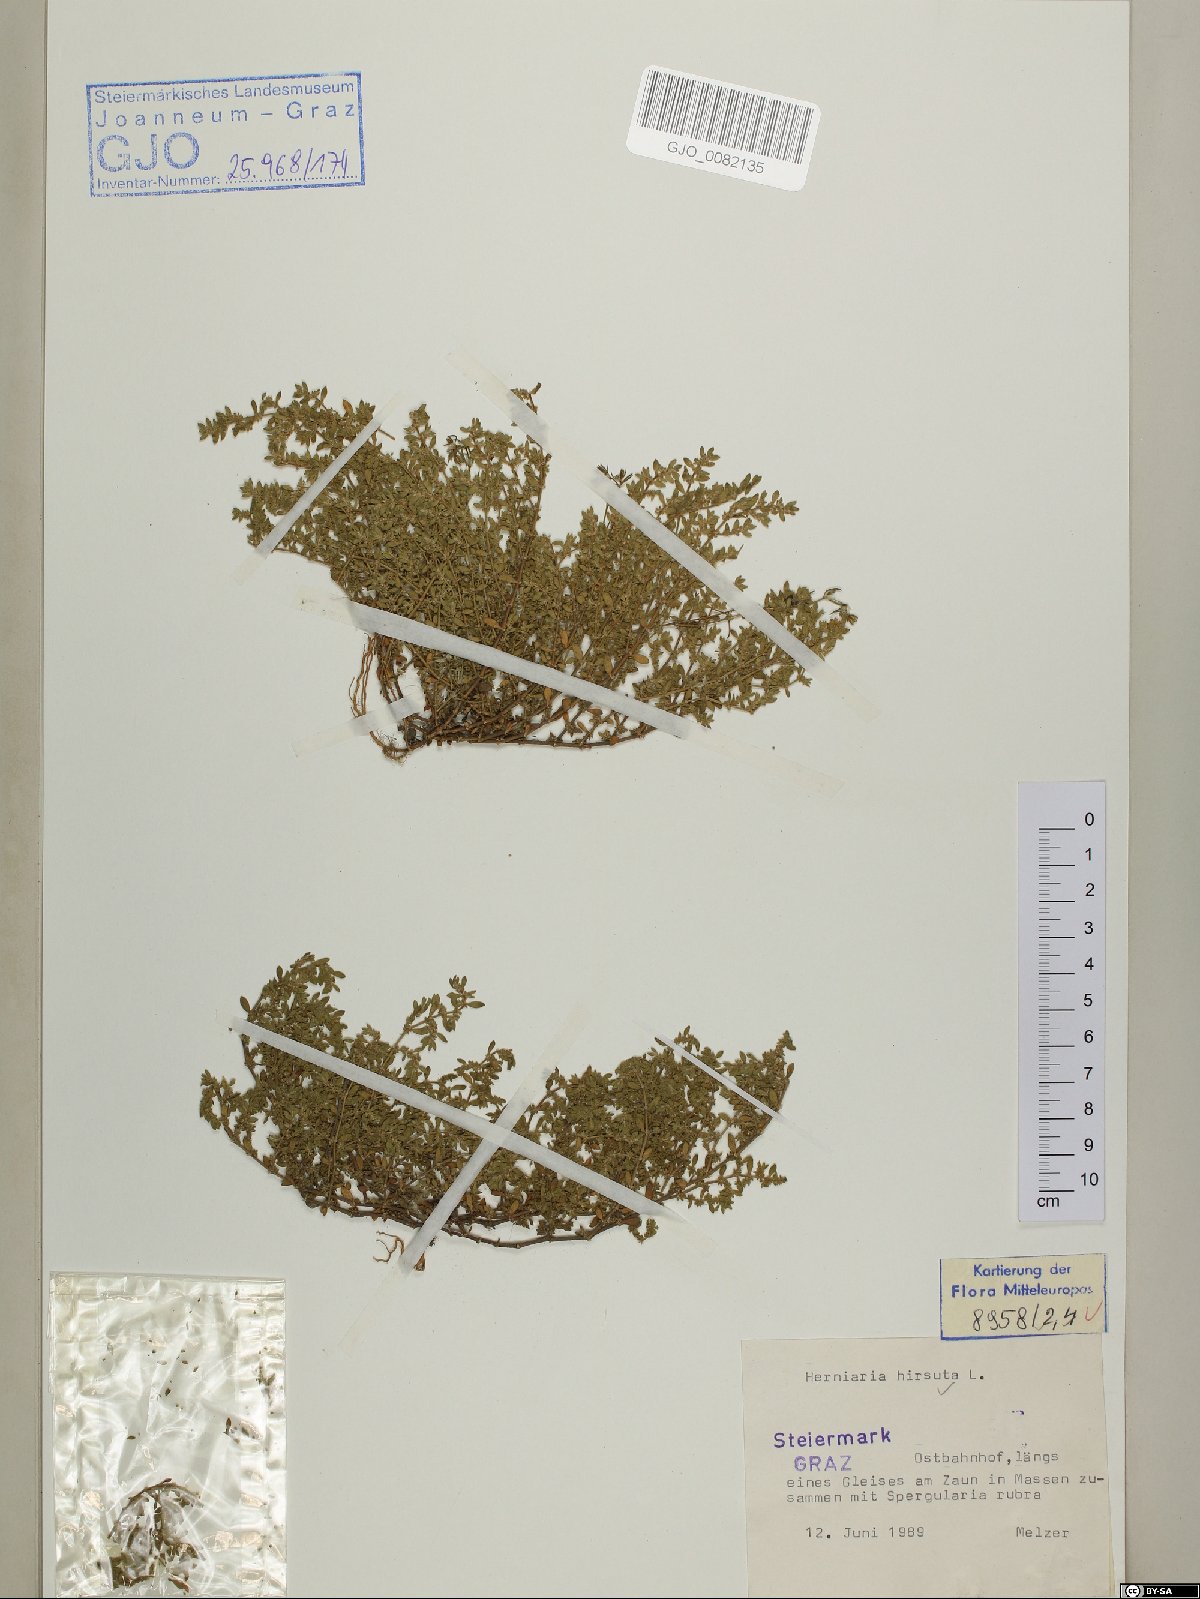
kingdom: Plantae
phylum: Tracheophyta
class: Magnoliopsida
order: Caryophyllales
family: Caryophyllaceae
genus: Herniaria
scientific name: Herniaria hirsuta
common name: Hairy rupturewort
